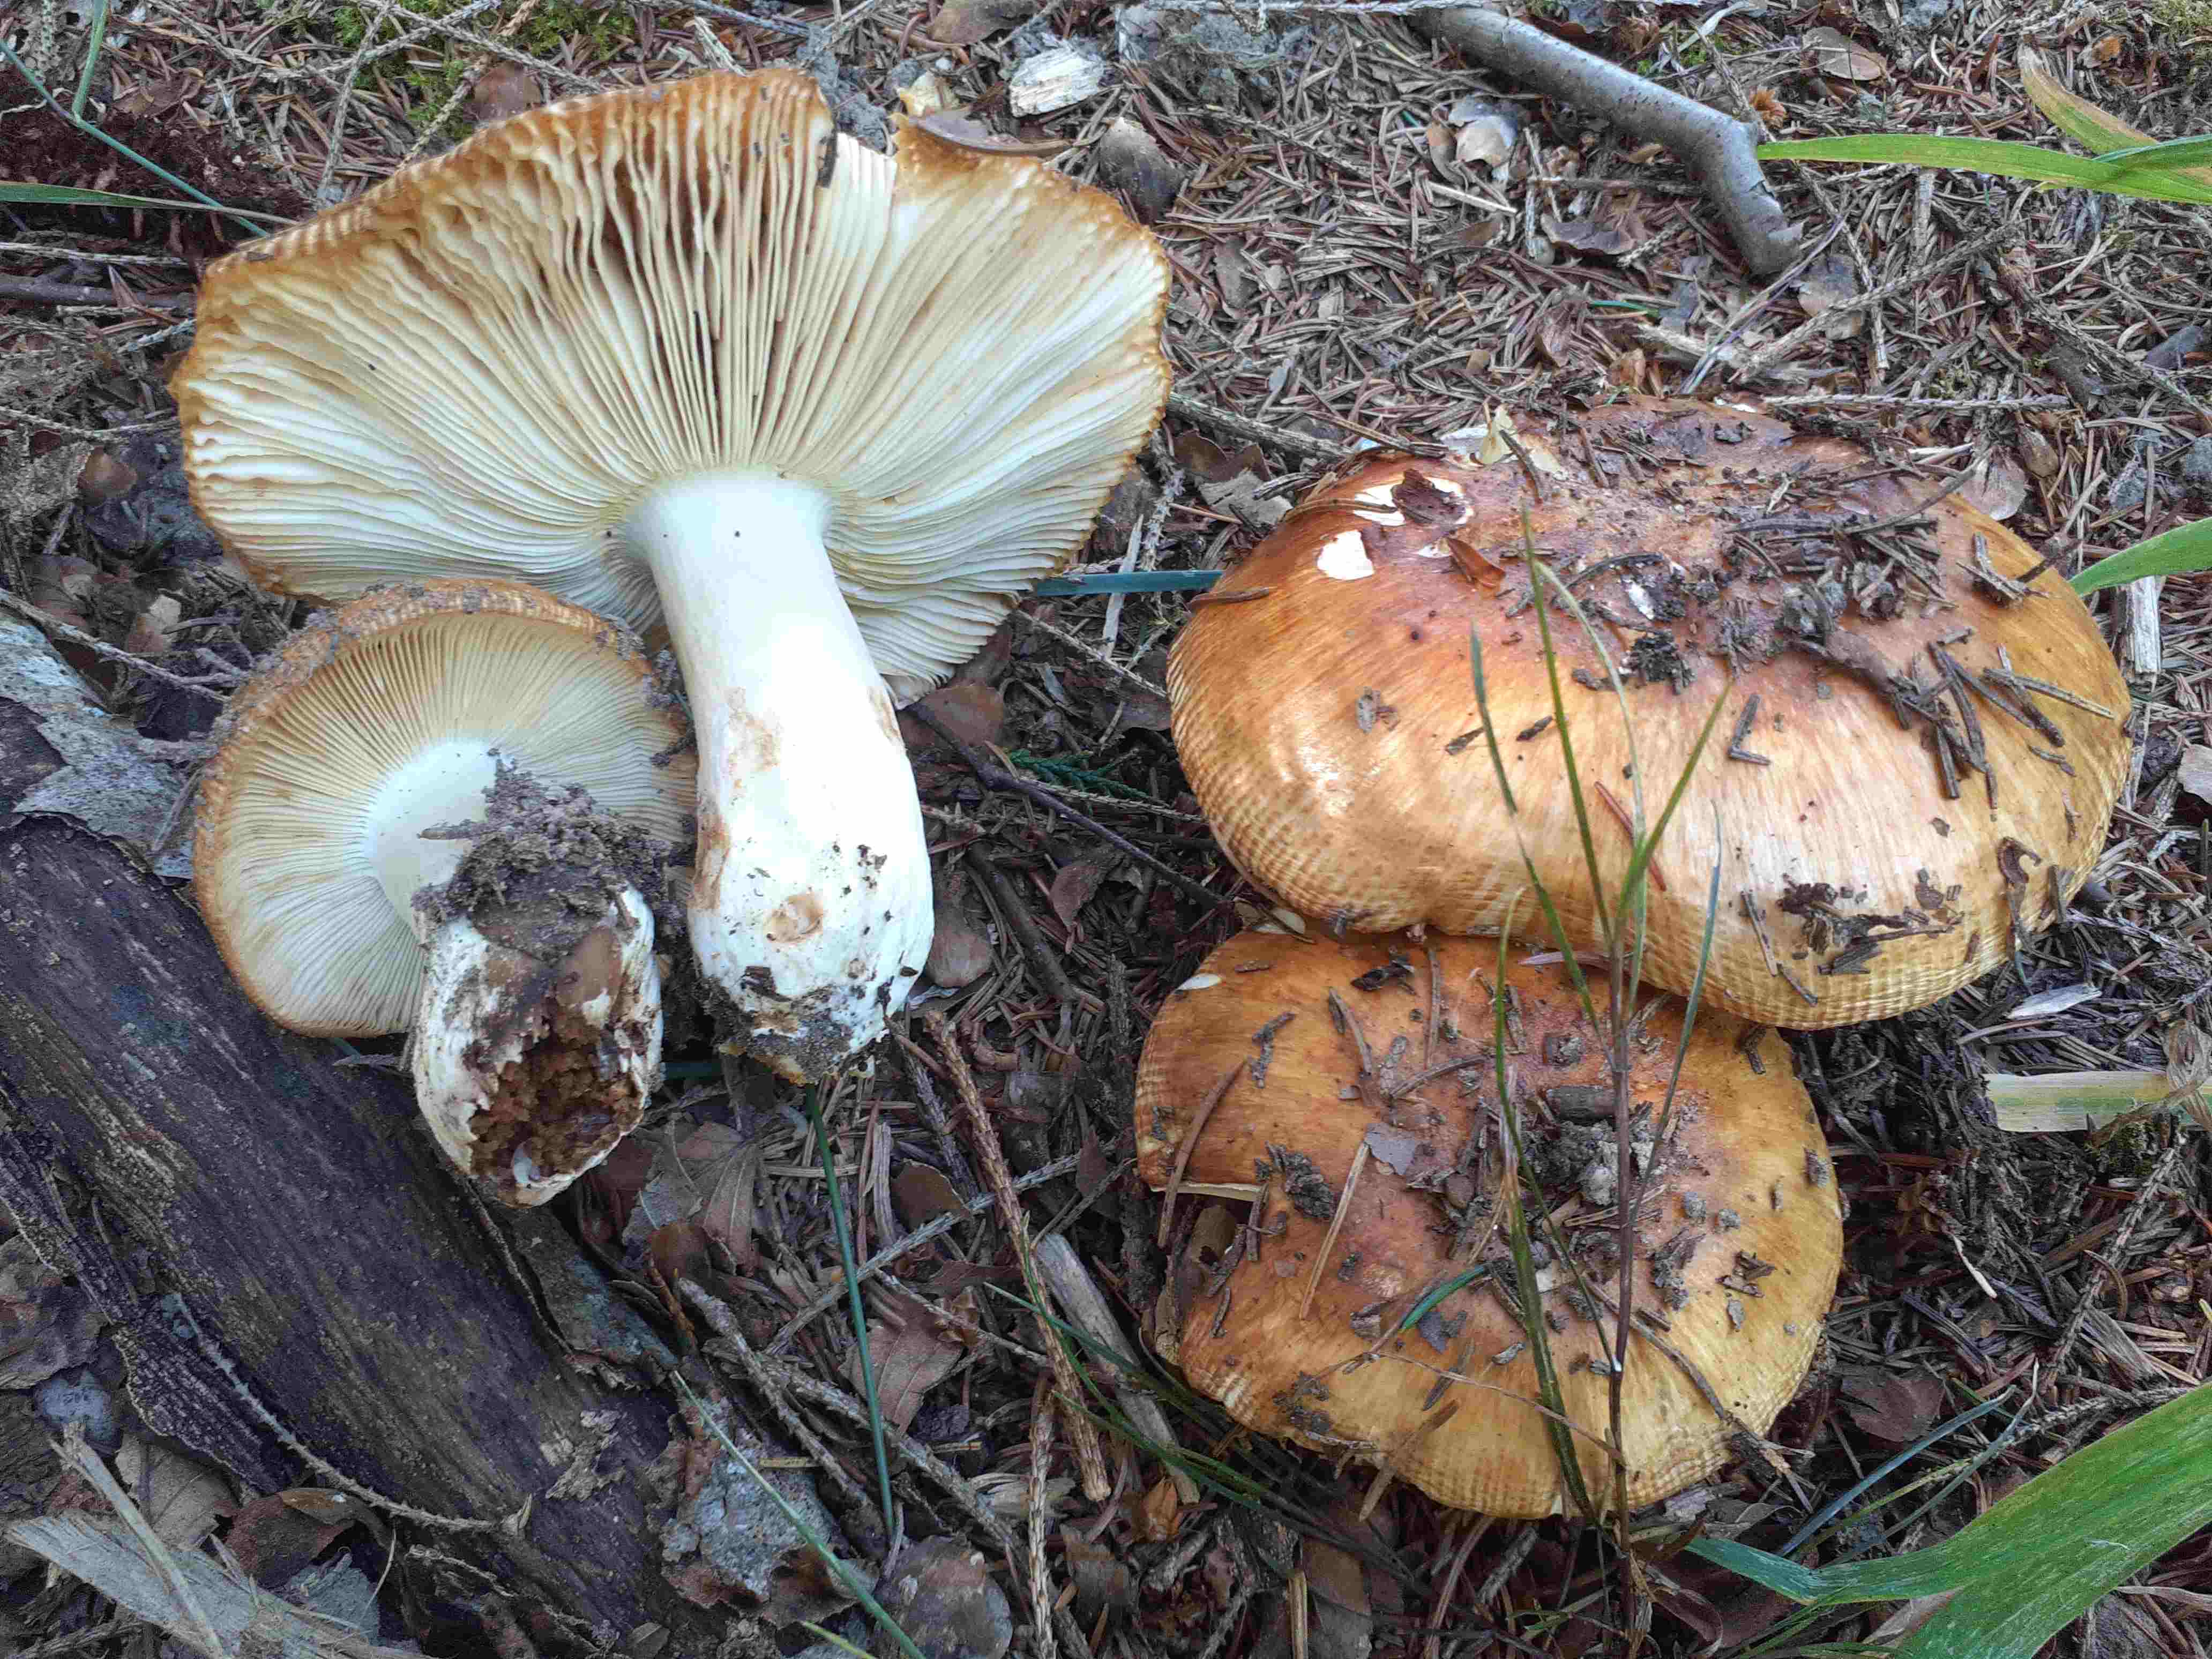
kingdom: Fungi
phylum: Basidiomycota
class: Agaricomycetes
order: Russulales
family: Russulaceae
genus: Russula
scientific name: Russula foetens
